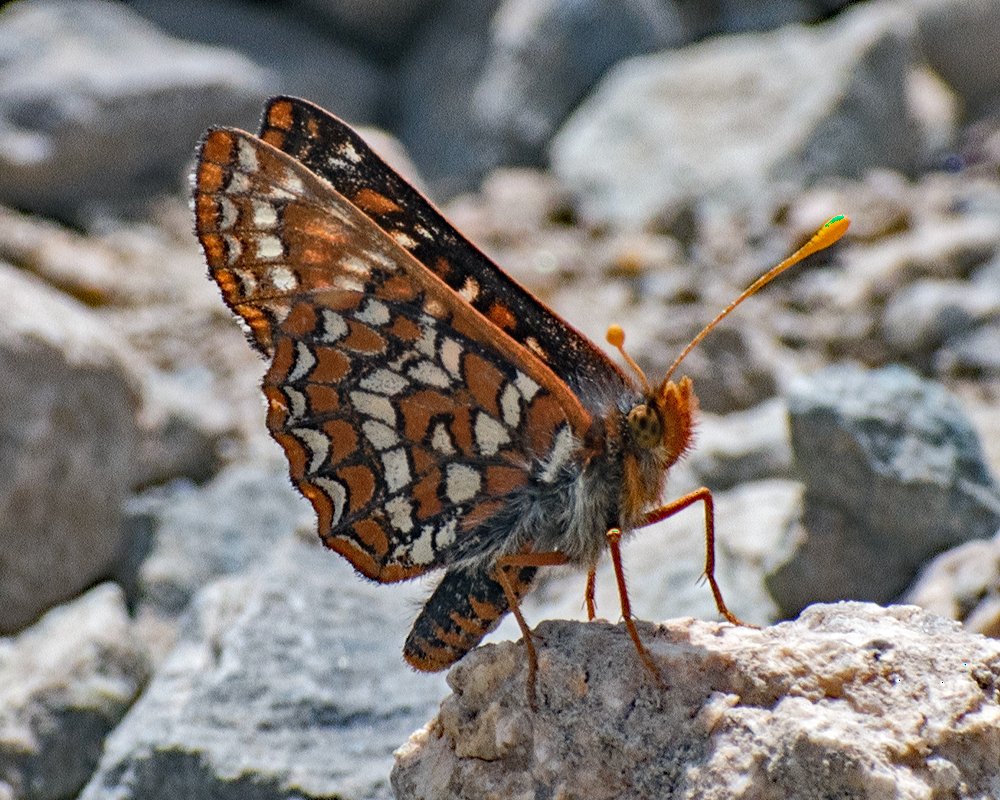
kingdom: Animalia
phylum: Arthropoda
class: Insecta
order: Lepidoptera
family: Nymphalidae
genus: Occidryas
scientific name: Occidryas editha
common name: Edith's Checkerspot
